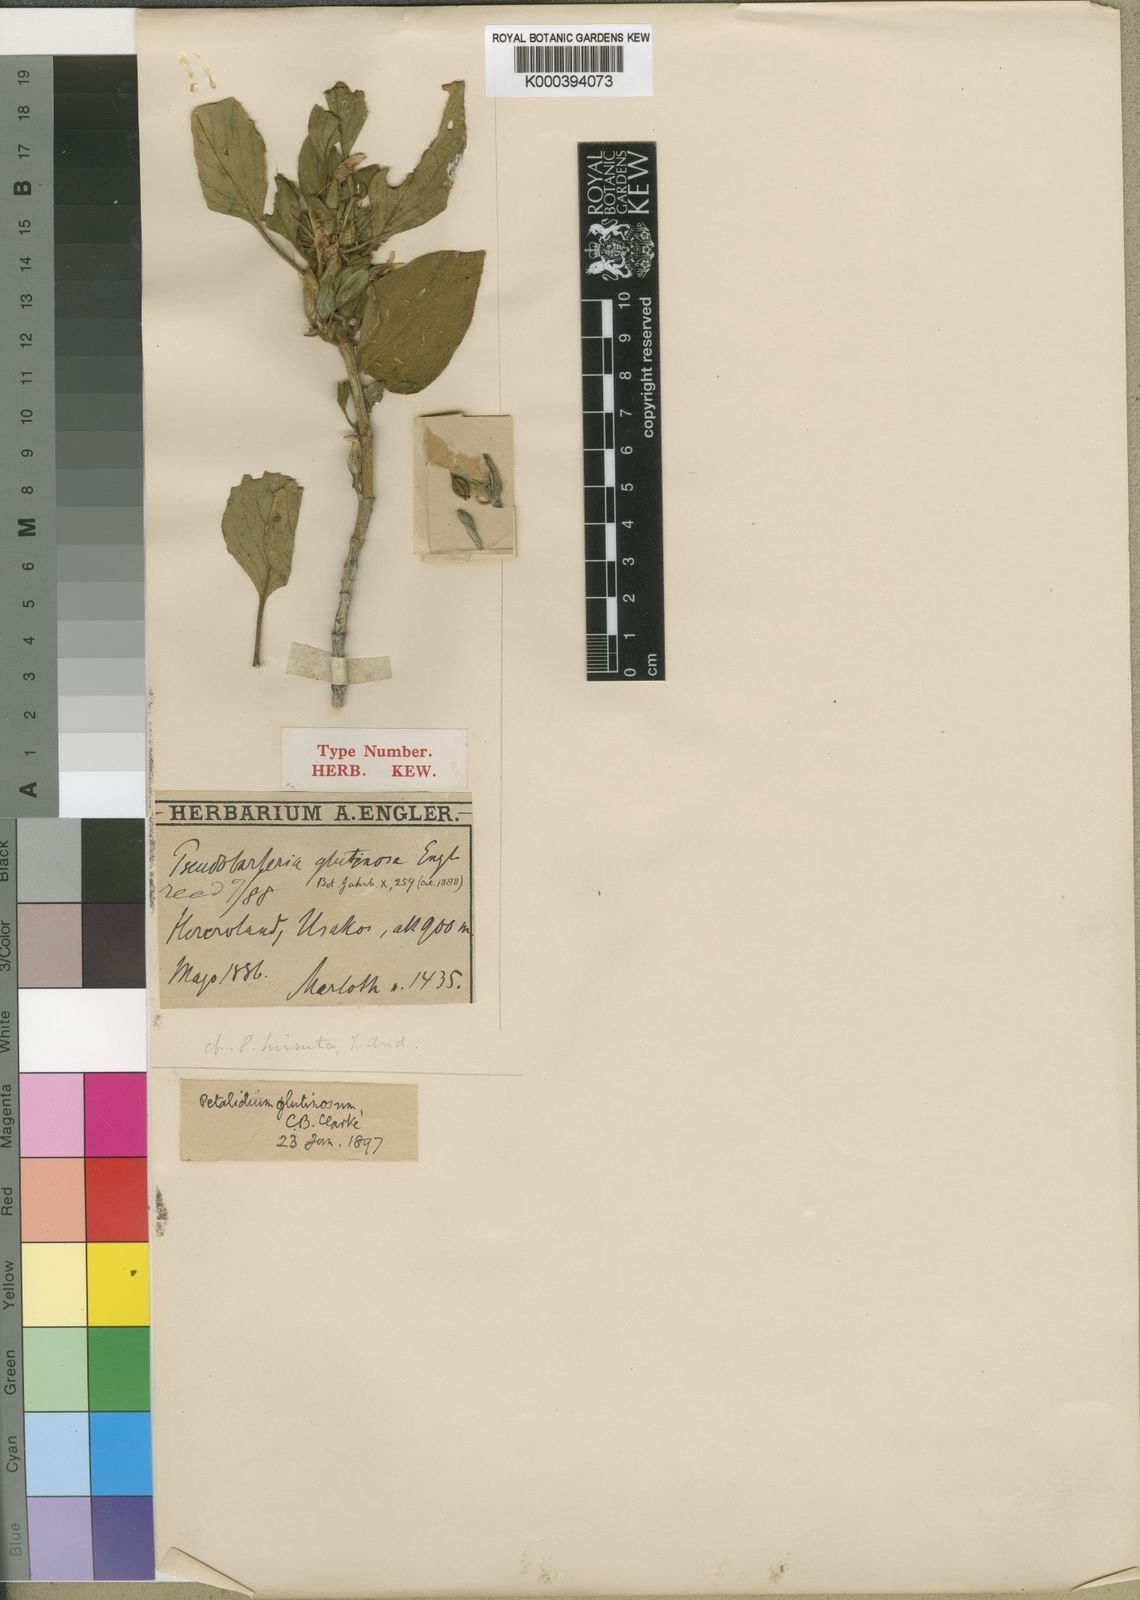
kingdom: Plantae
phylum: Tracheophyta
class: Magnoliopsida
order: Lamiales
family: Acanthaceae
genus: Petalidium
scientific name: Petalidium
